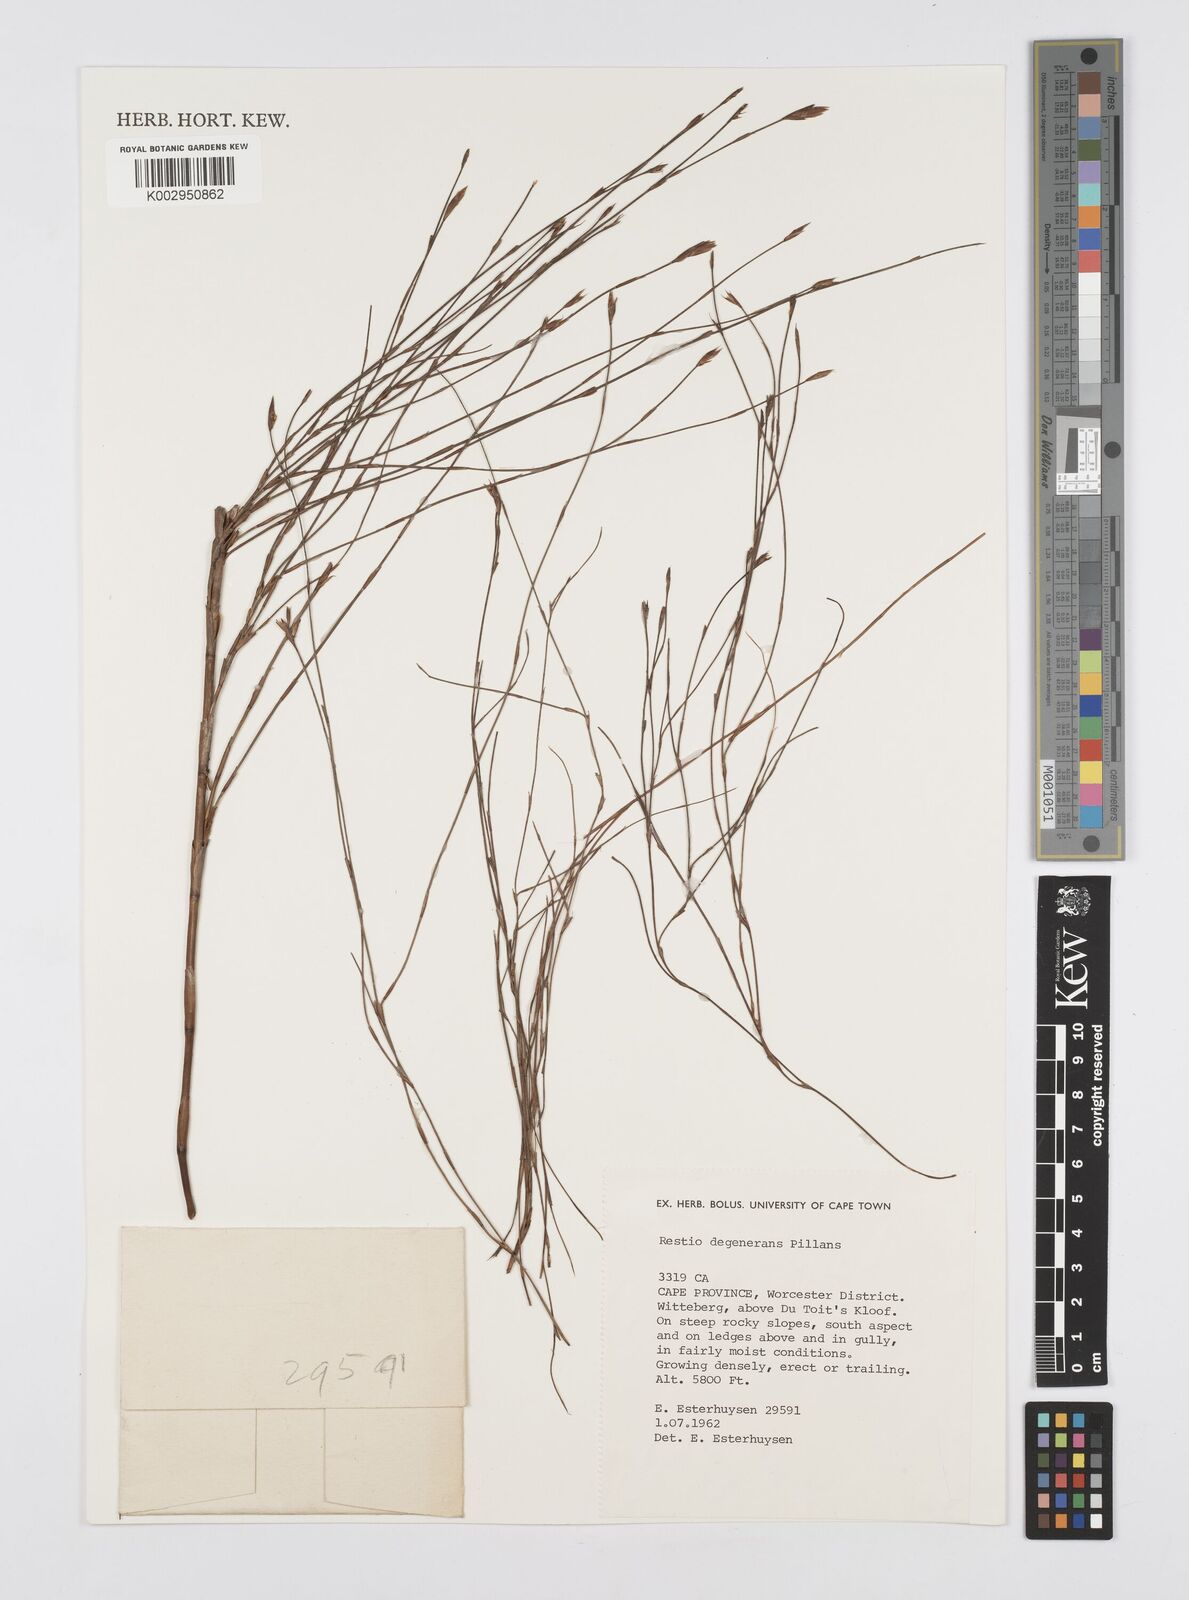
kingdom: Plantae
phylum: Tracheophyta
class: Liliopsida
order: Poales
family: Restionaceae
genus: Restio
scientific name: Restio degenerans
